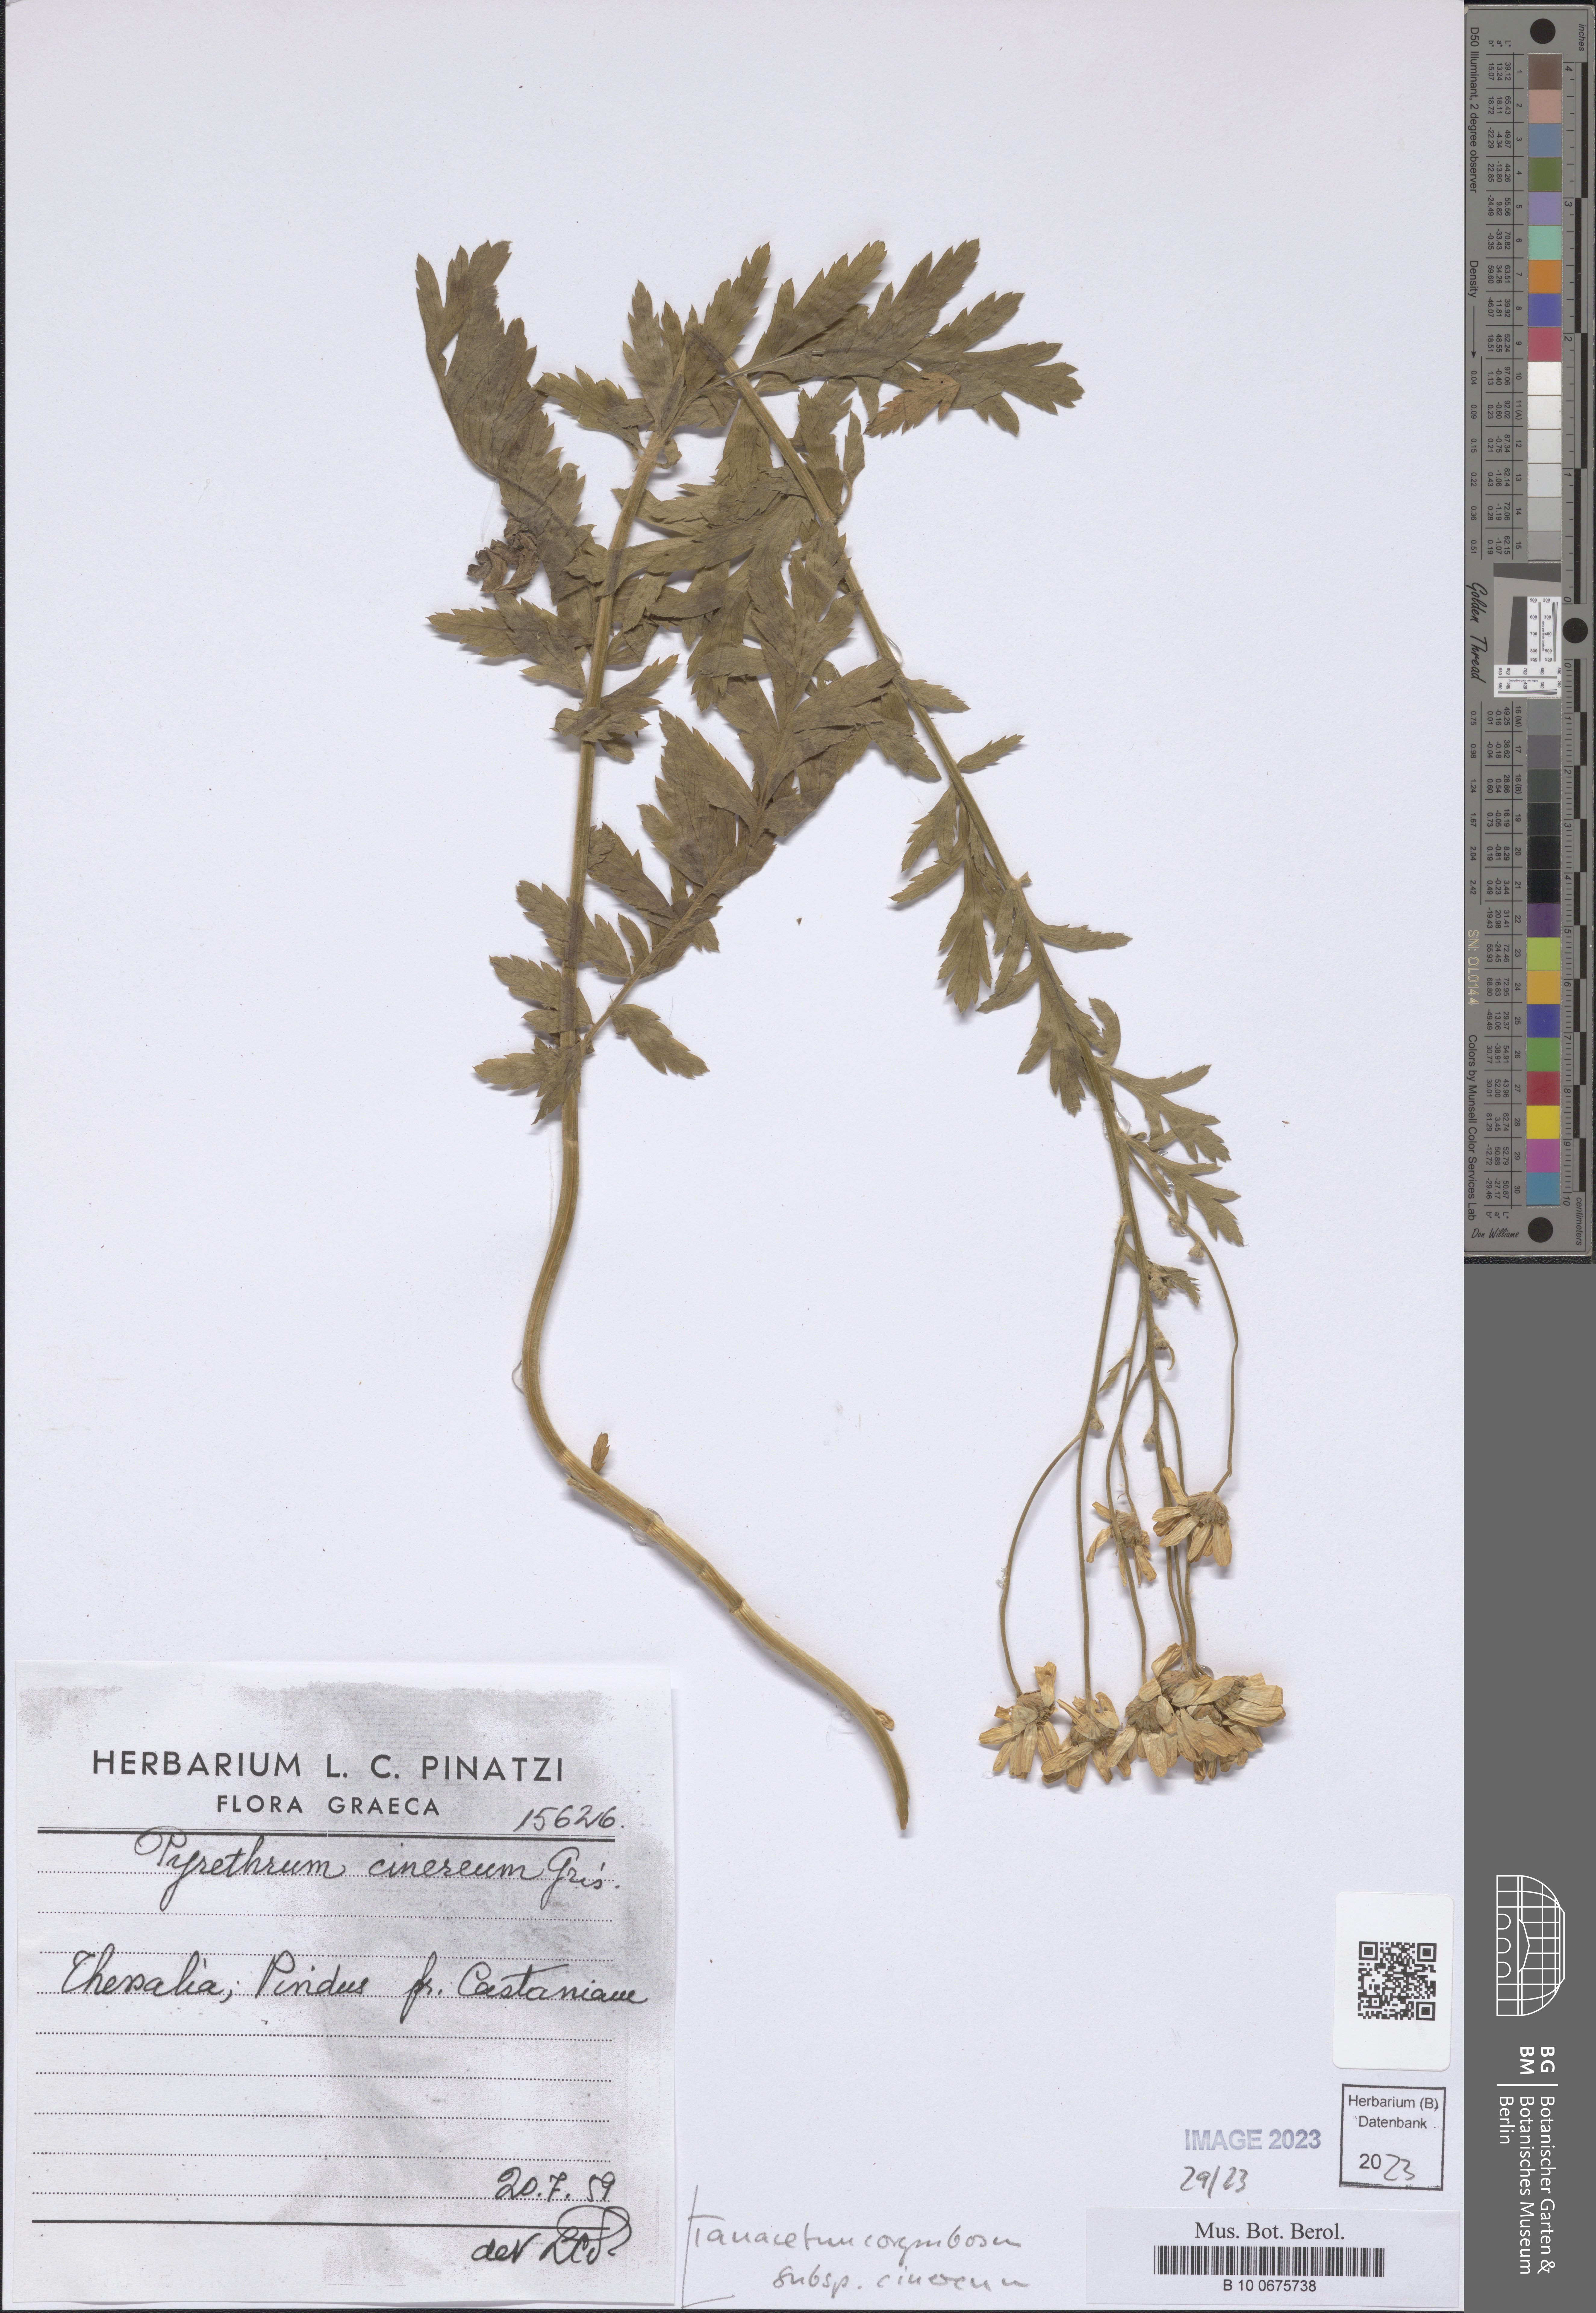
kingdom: Plantae
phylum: Tracheophyta
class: Magnoliopsida
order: Asterales
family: Asteraceae
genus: Tanacetum
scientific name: Tanacetum corymbosum
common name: Scentless feverfew
